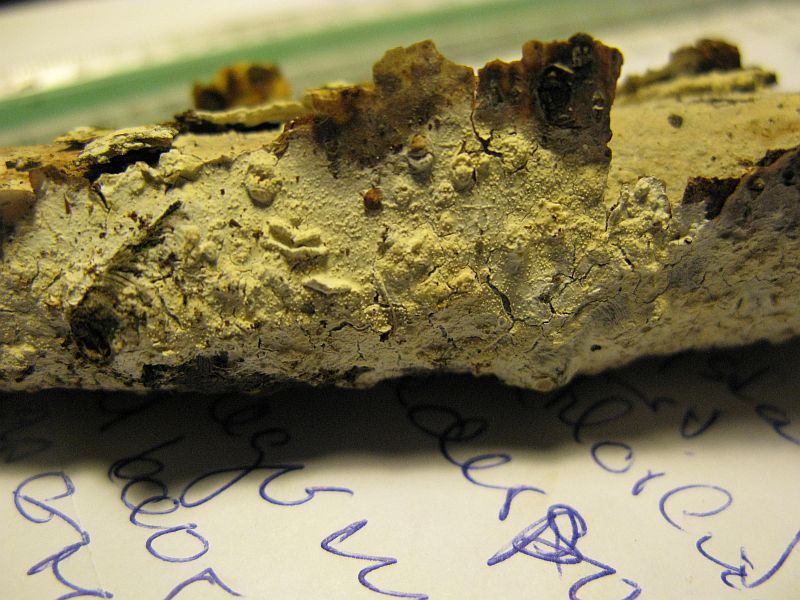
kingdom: Fungi
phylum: Basidiomycota
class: Agaricomycetes
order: Hymenochaetales
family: Rickenellaceae
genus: Resinicium
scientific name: Resinicium bicolor
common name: almindelig vokstand
